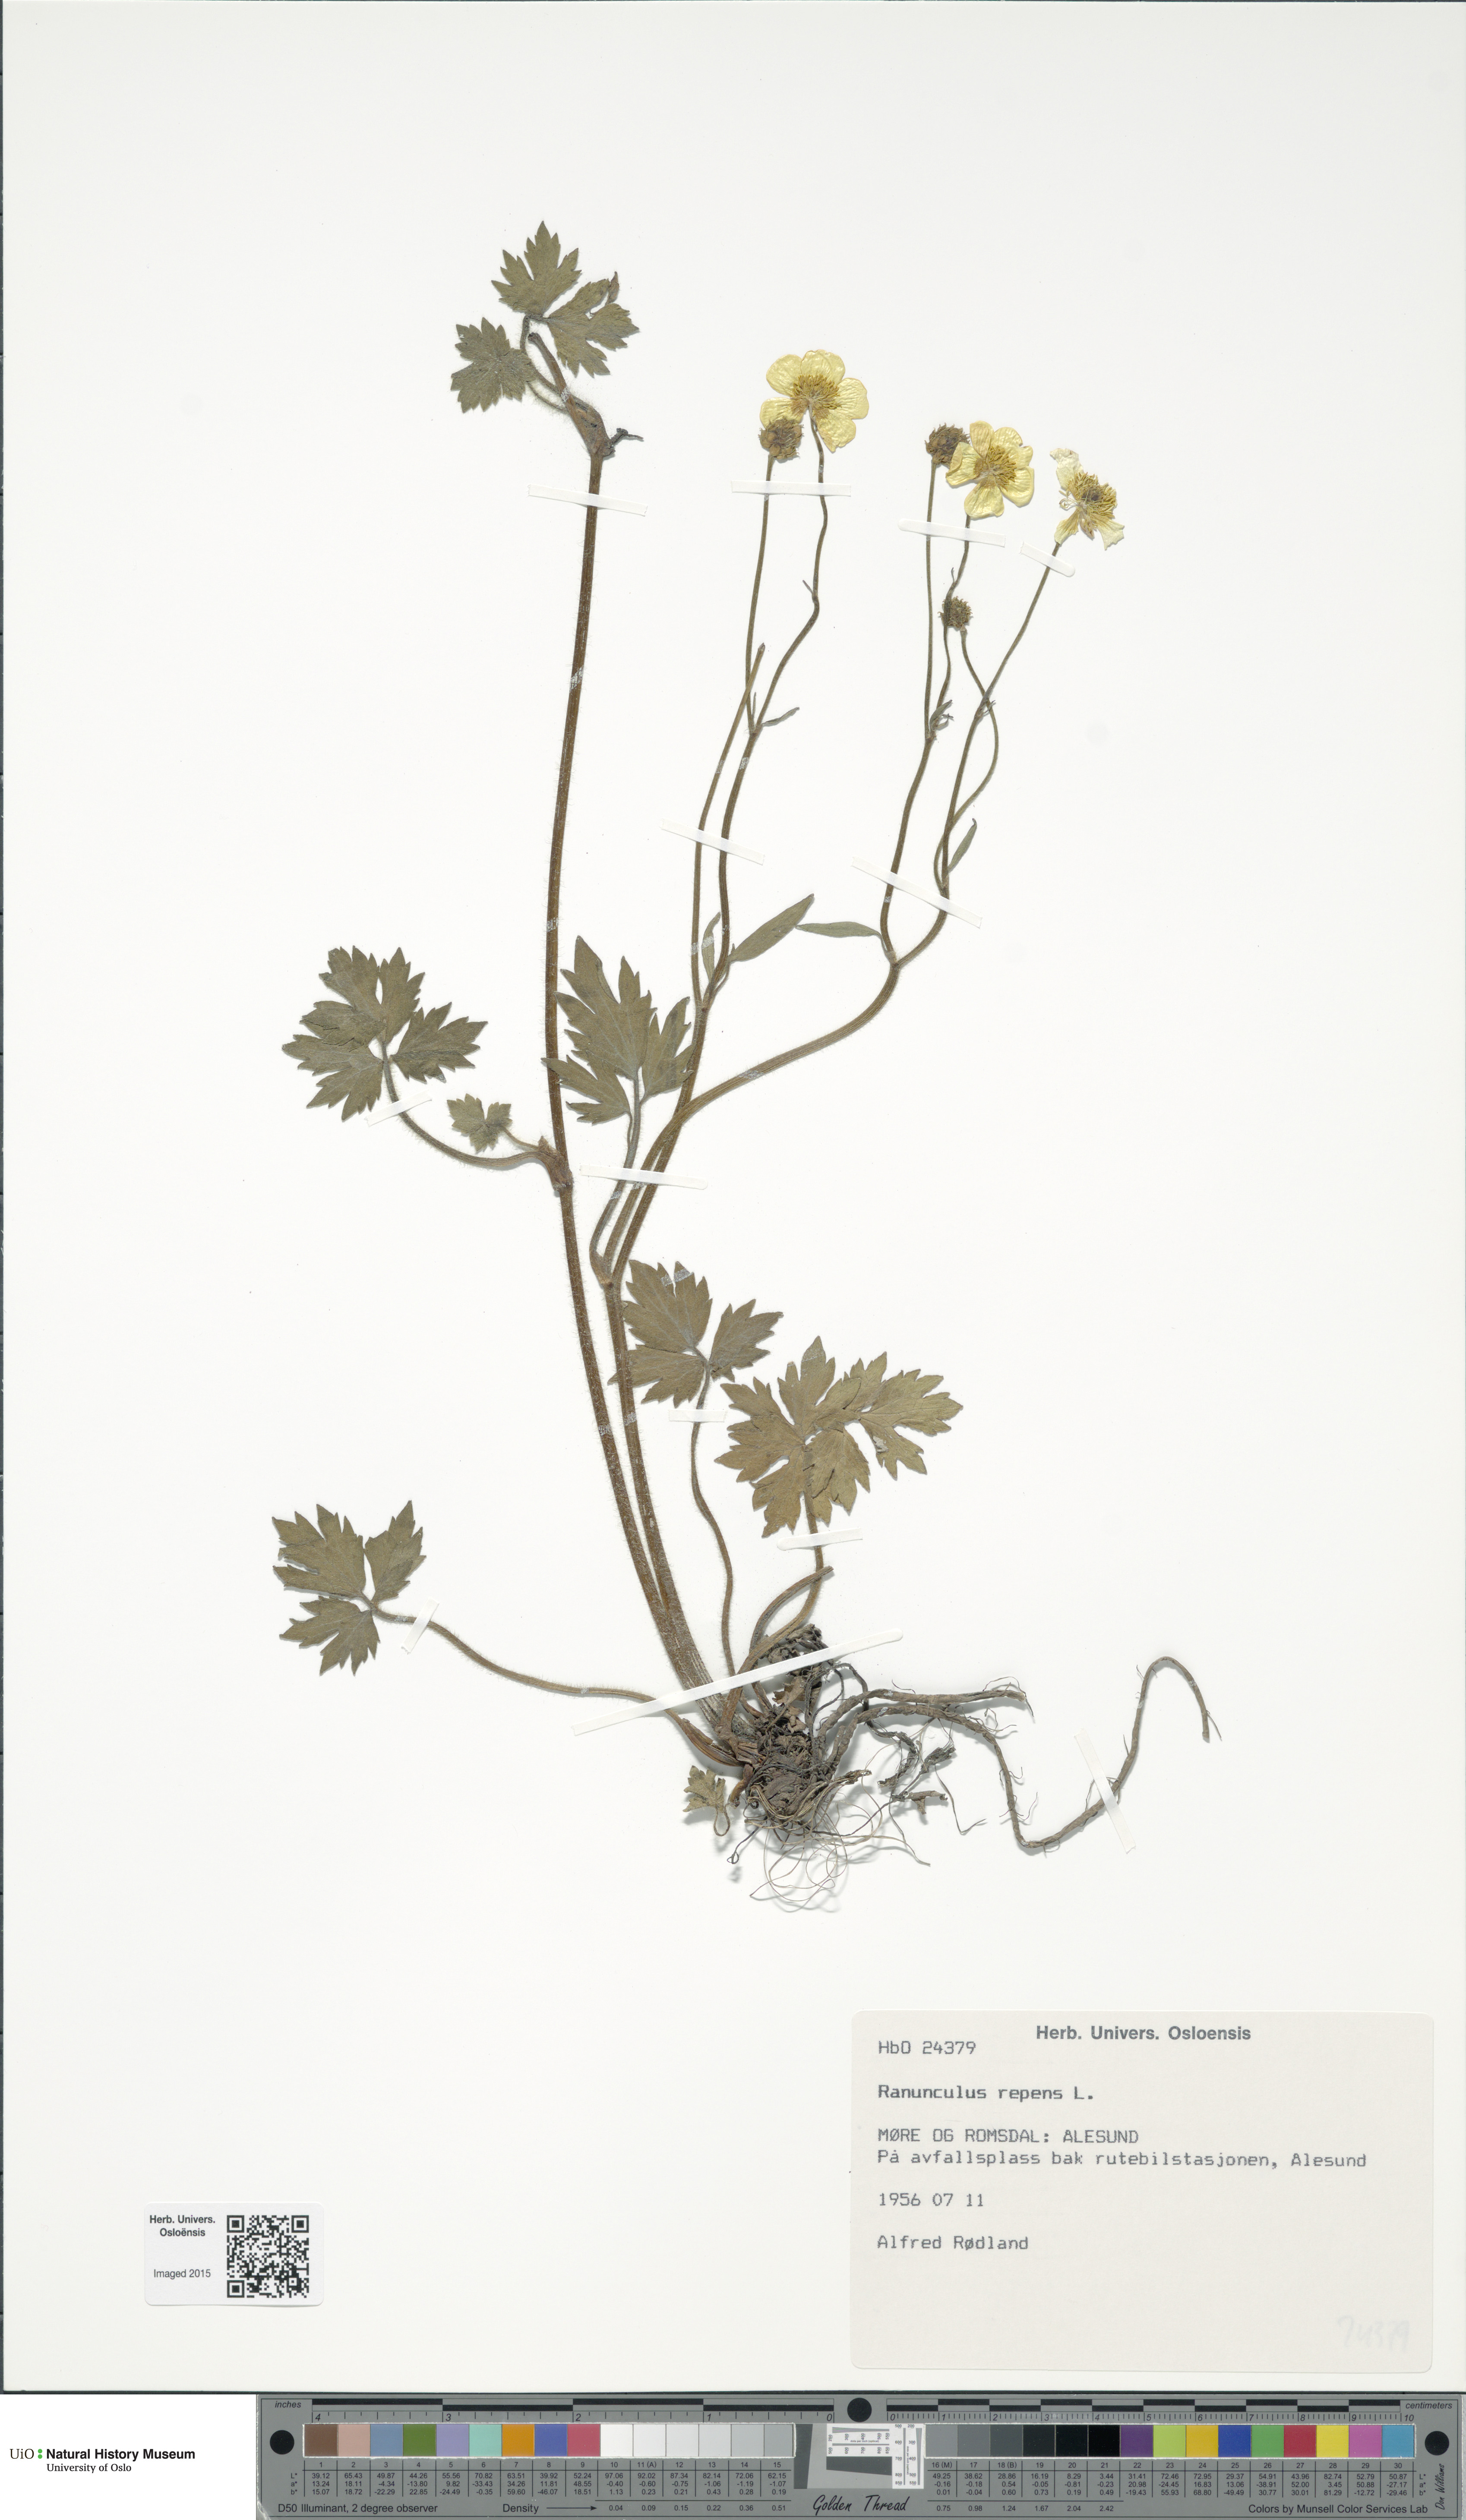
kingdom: Plantae
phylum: Tracheophyta
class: Magnoliopsida
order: Ranunculales
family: Ranunculaceae
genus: Ranunculus
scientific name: Ranunculus repens
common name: Creeping buttercup
